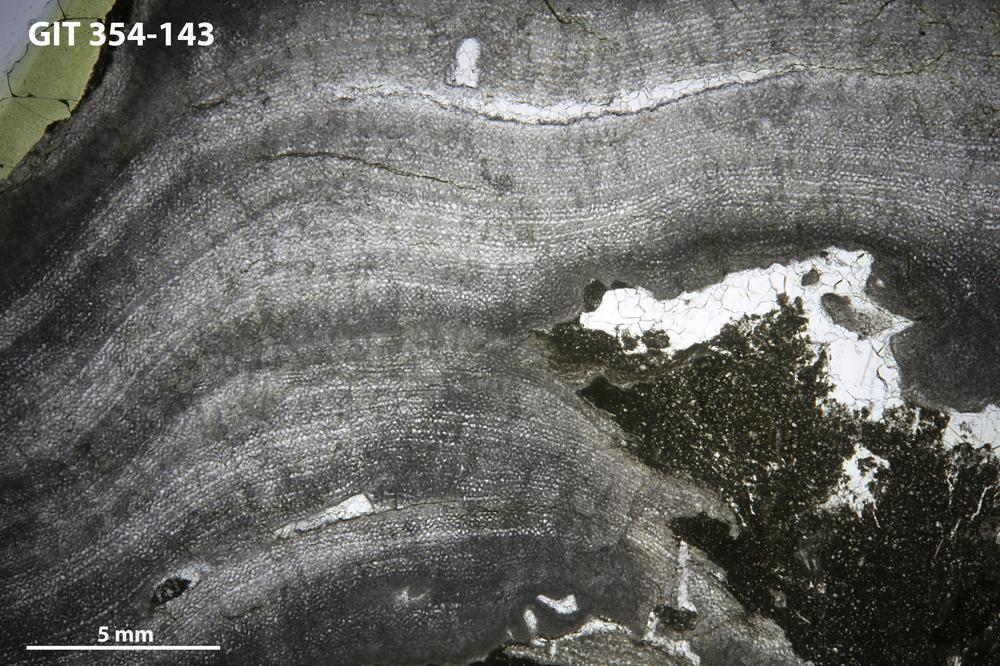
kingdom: Animalia
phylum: Porifera
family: Ecclimadictyidae
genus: Ecclimadictyon
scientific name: Ecclimadictyon Clathrodictyon microvesiculosum
